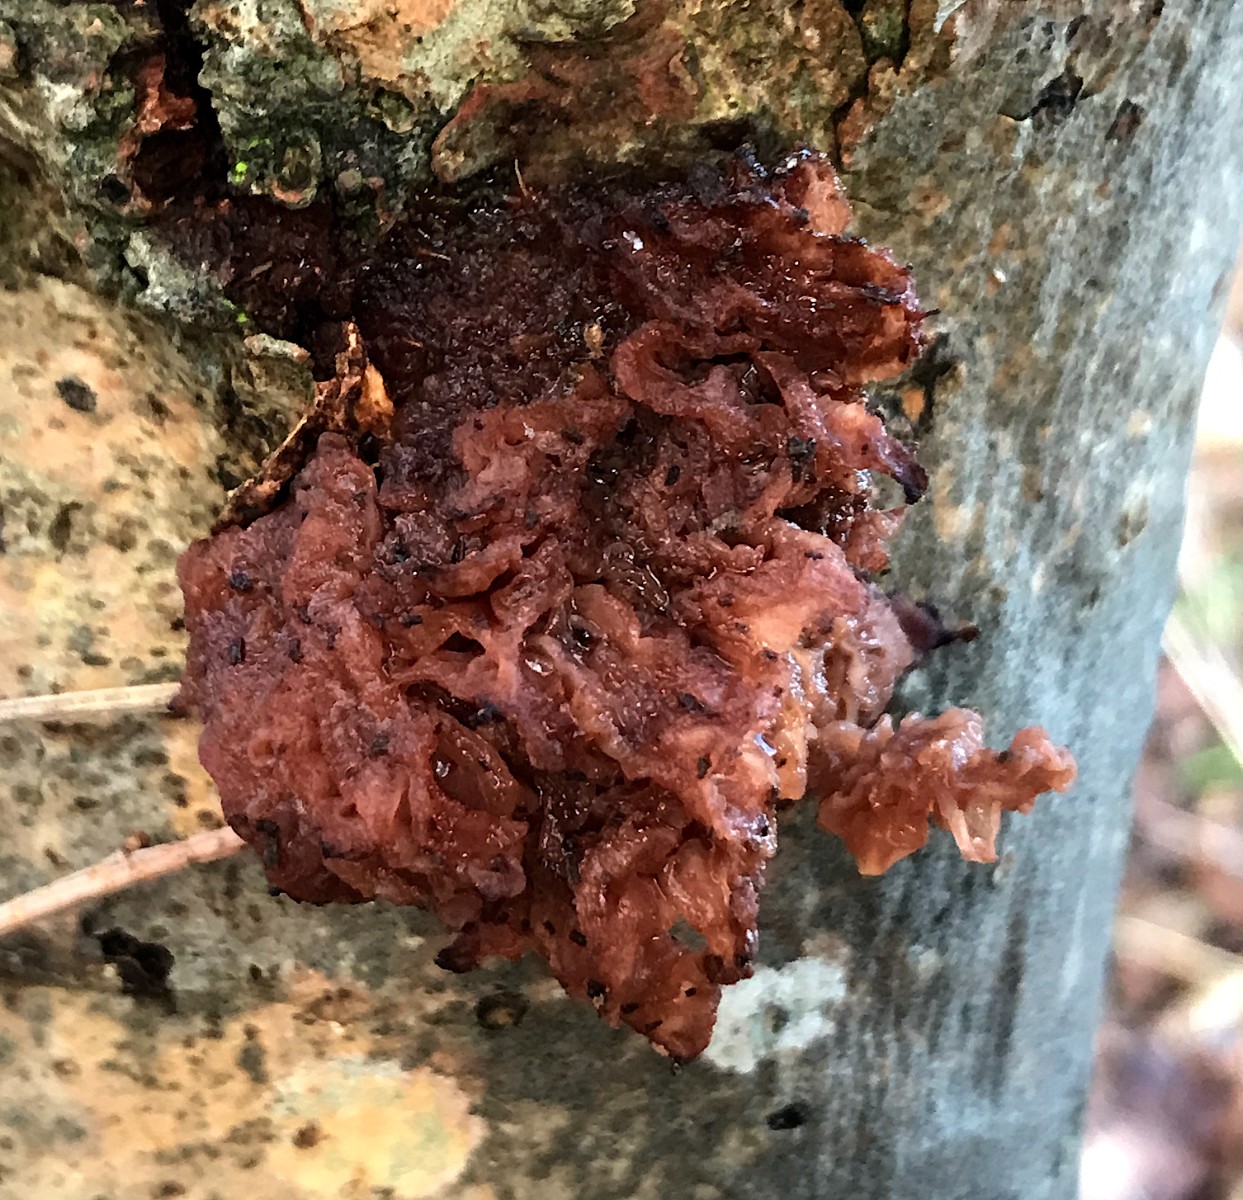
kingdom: Fungi
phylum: Basidiomycota
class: Tremellomycetes
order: Tremellales
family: Tremellaceae
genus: Phaeotremella
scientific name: Phaeotremella frondosa
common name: kæmpe-bævresvamp
